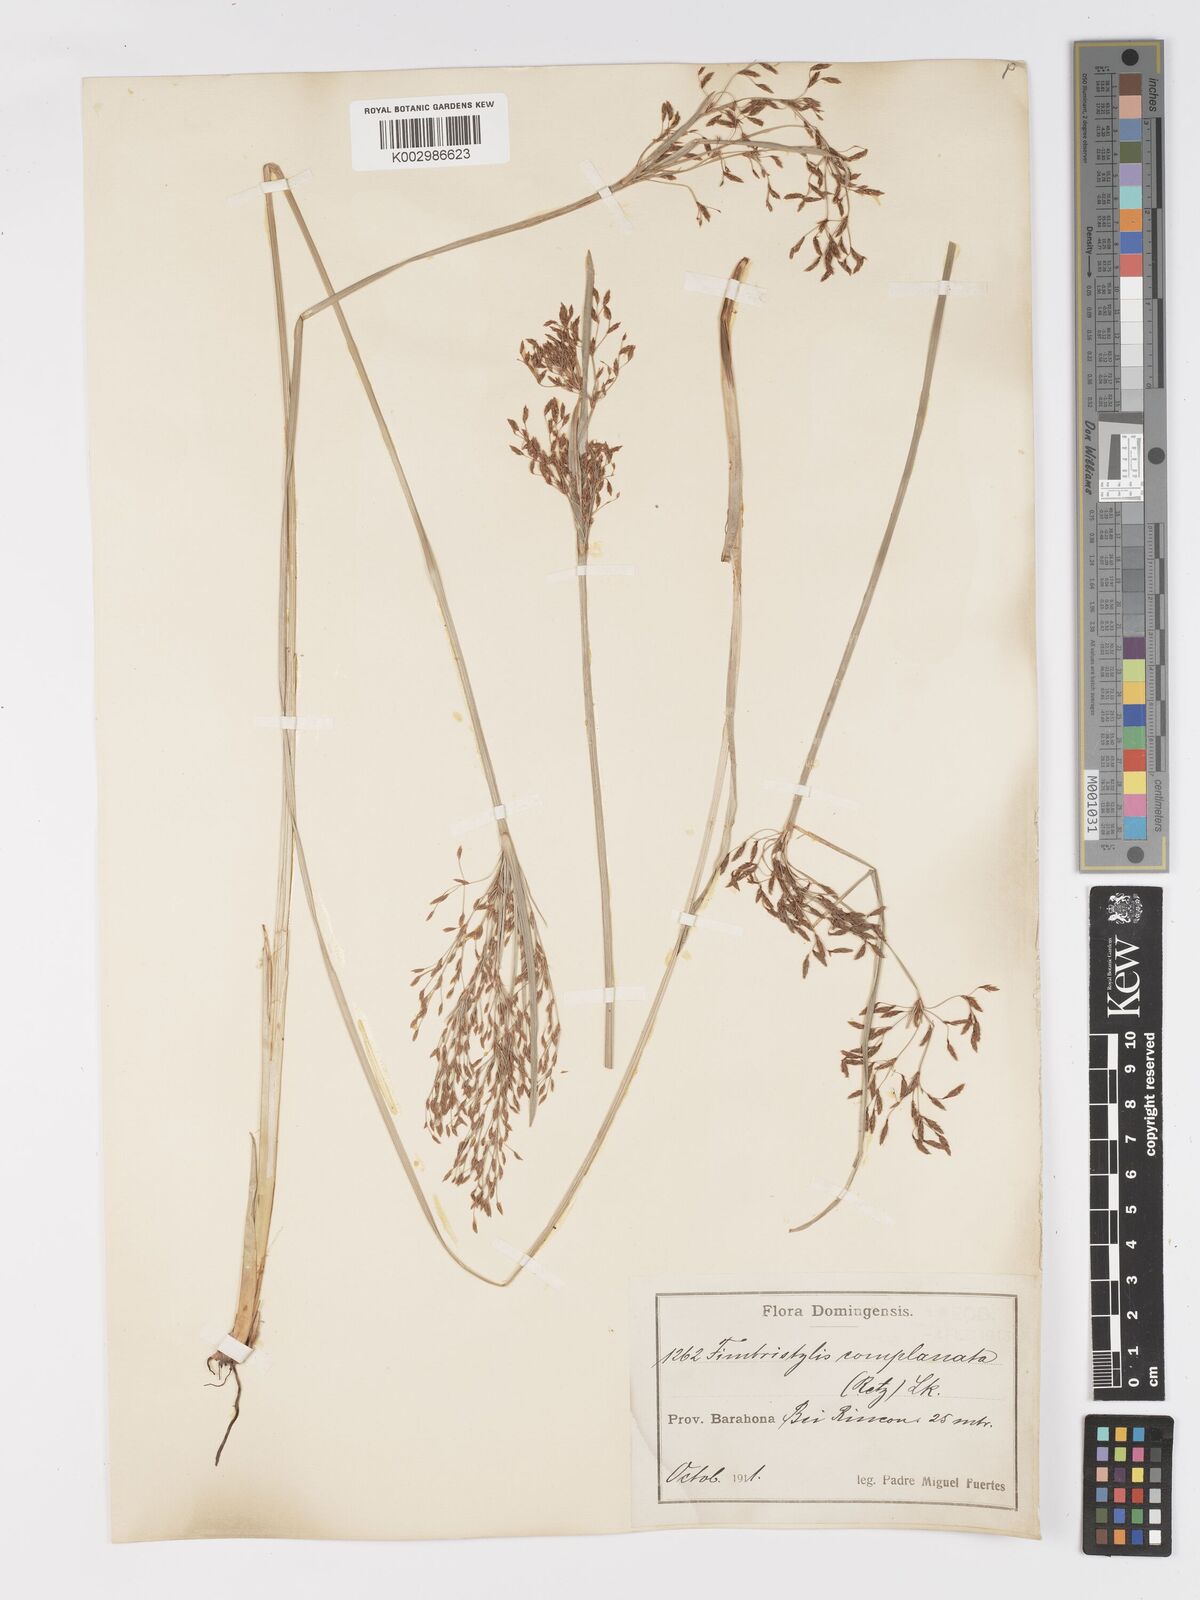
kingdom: Plantae
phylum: Tracheophyta
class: Liliopsida
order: Poales
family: Cyperaceae
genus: Fimbristylis
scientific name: Fimbristylis complanata
